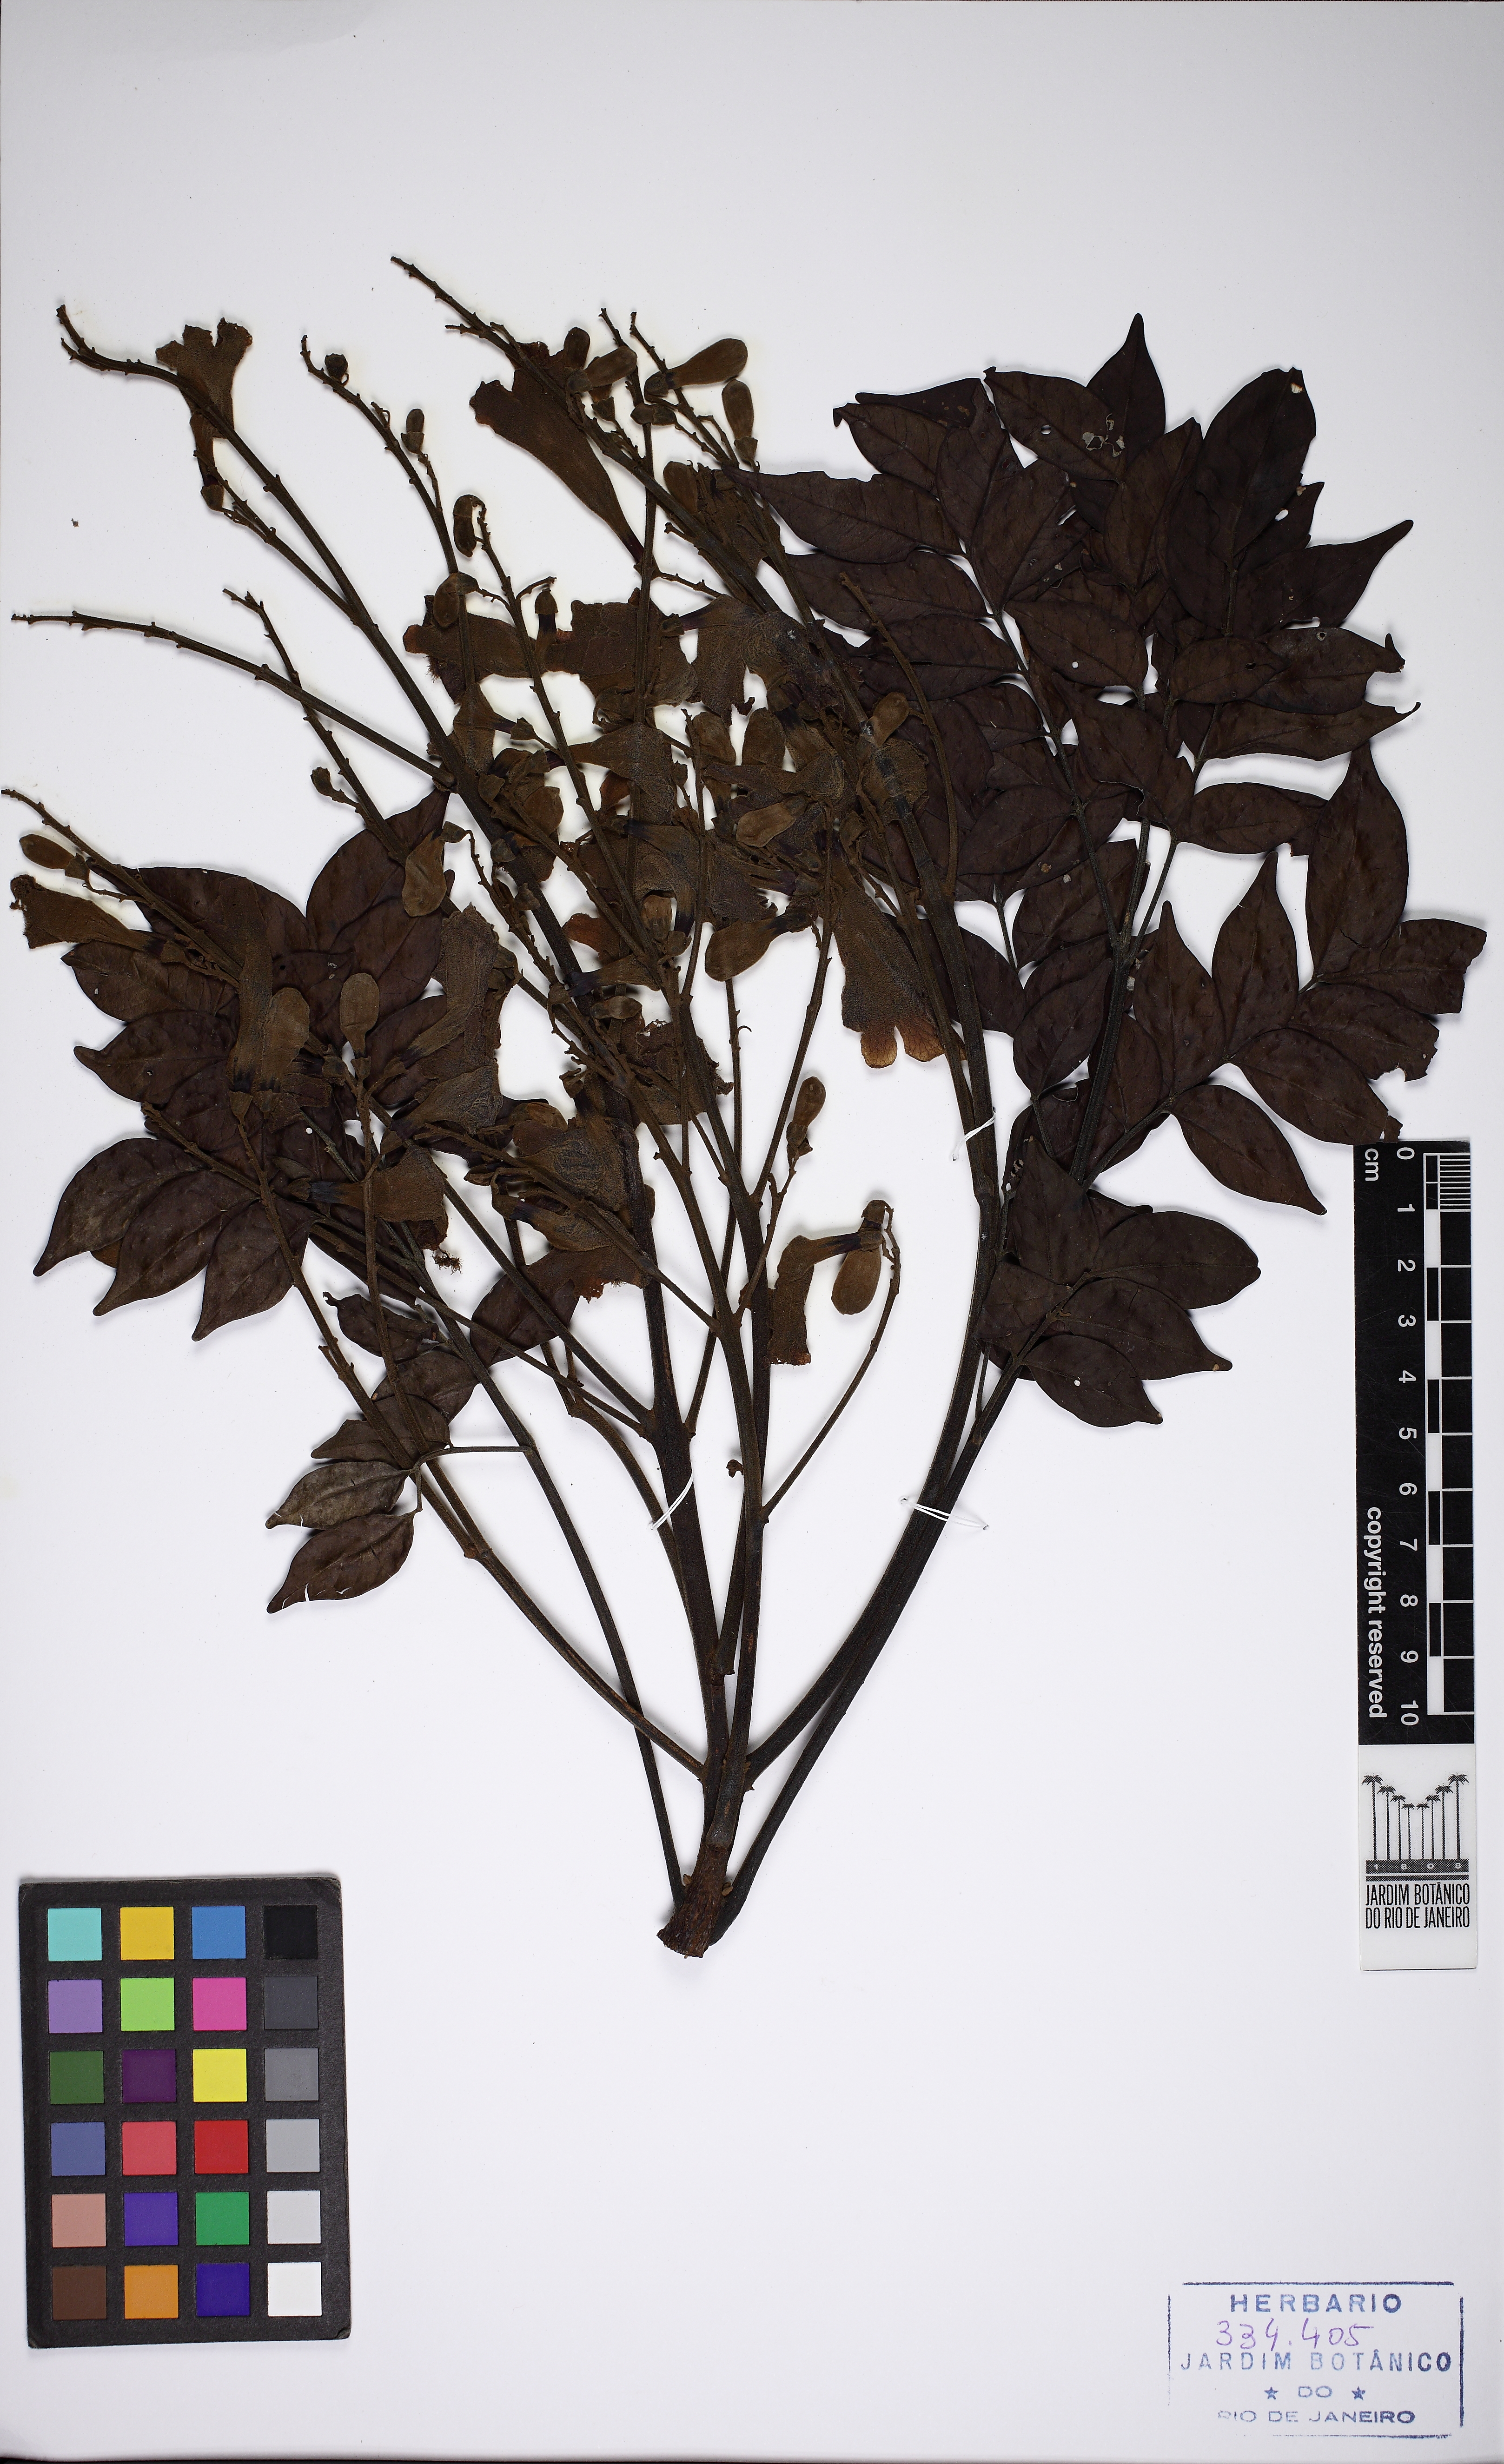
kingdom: Plantae
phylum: Tracheophyta
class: Magnoliopsida
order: Lamiales
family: Bignoniaceae
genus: Jacaranda
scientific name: Jacaranda copaia
